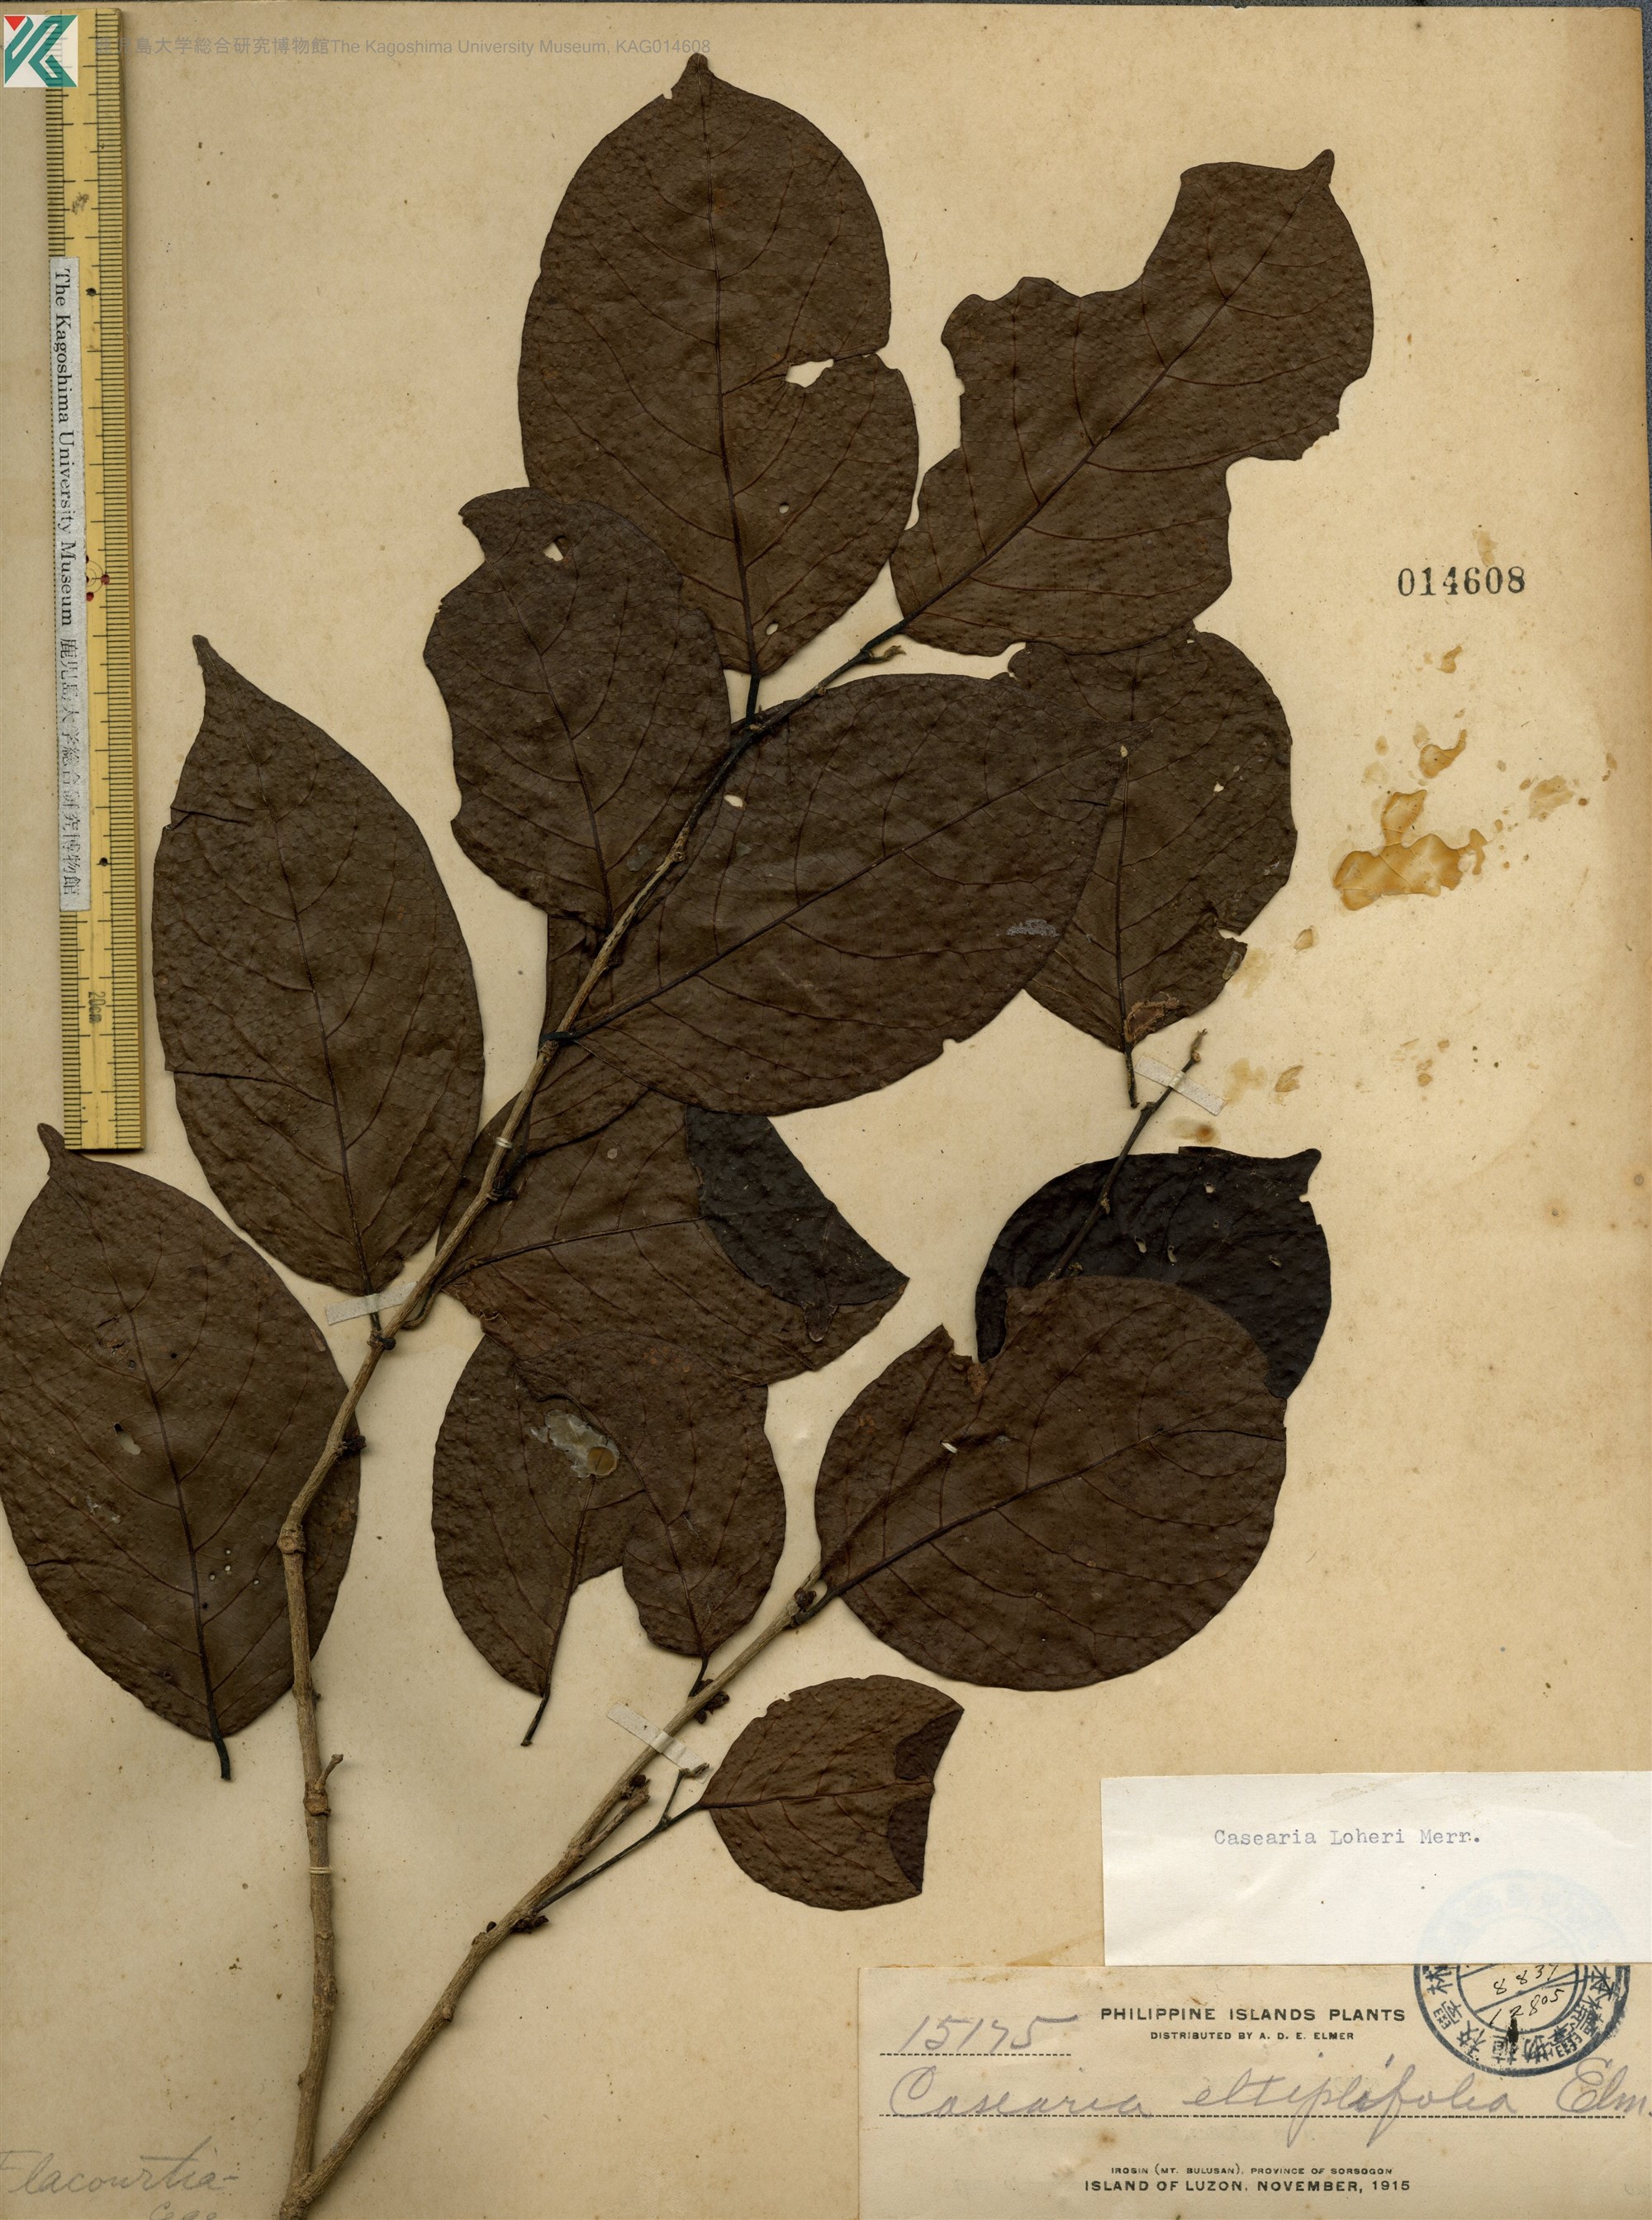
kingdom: Plantae
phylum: Tracheophyta
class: Magnoliopsida
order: Malpighiales
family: Salicaceae
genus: Casearia
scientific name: Casearia loheri
